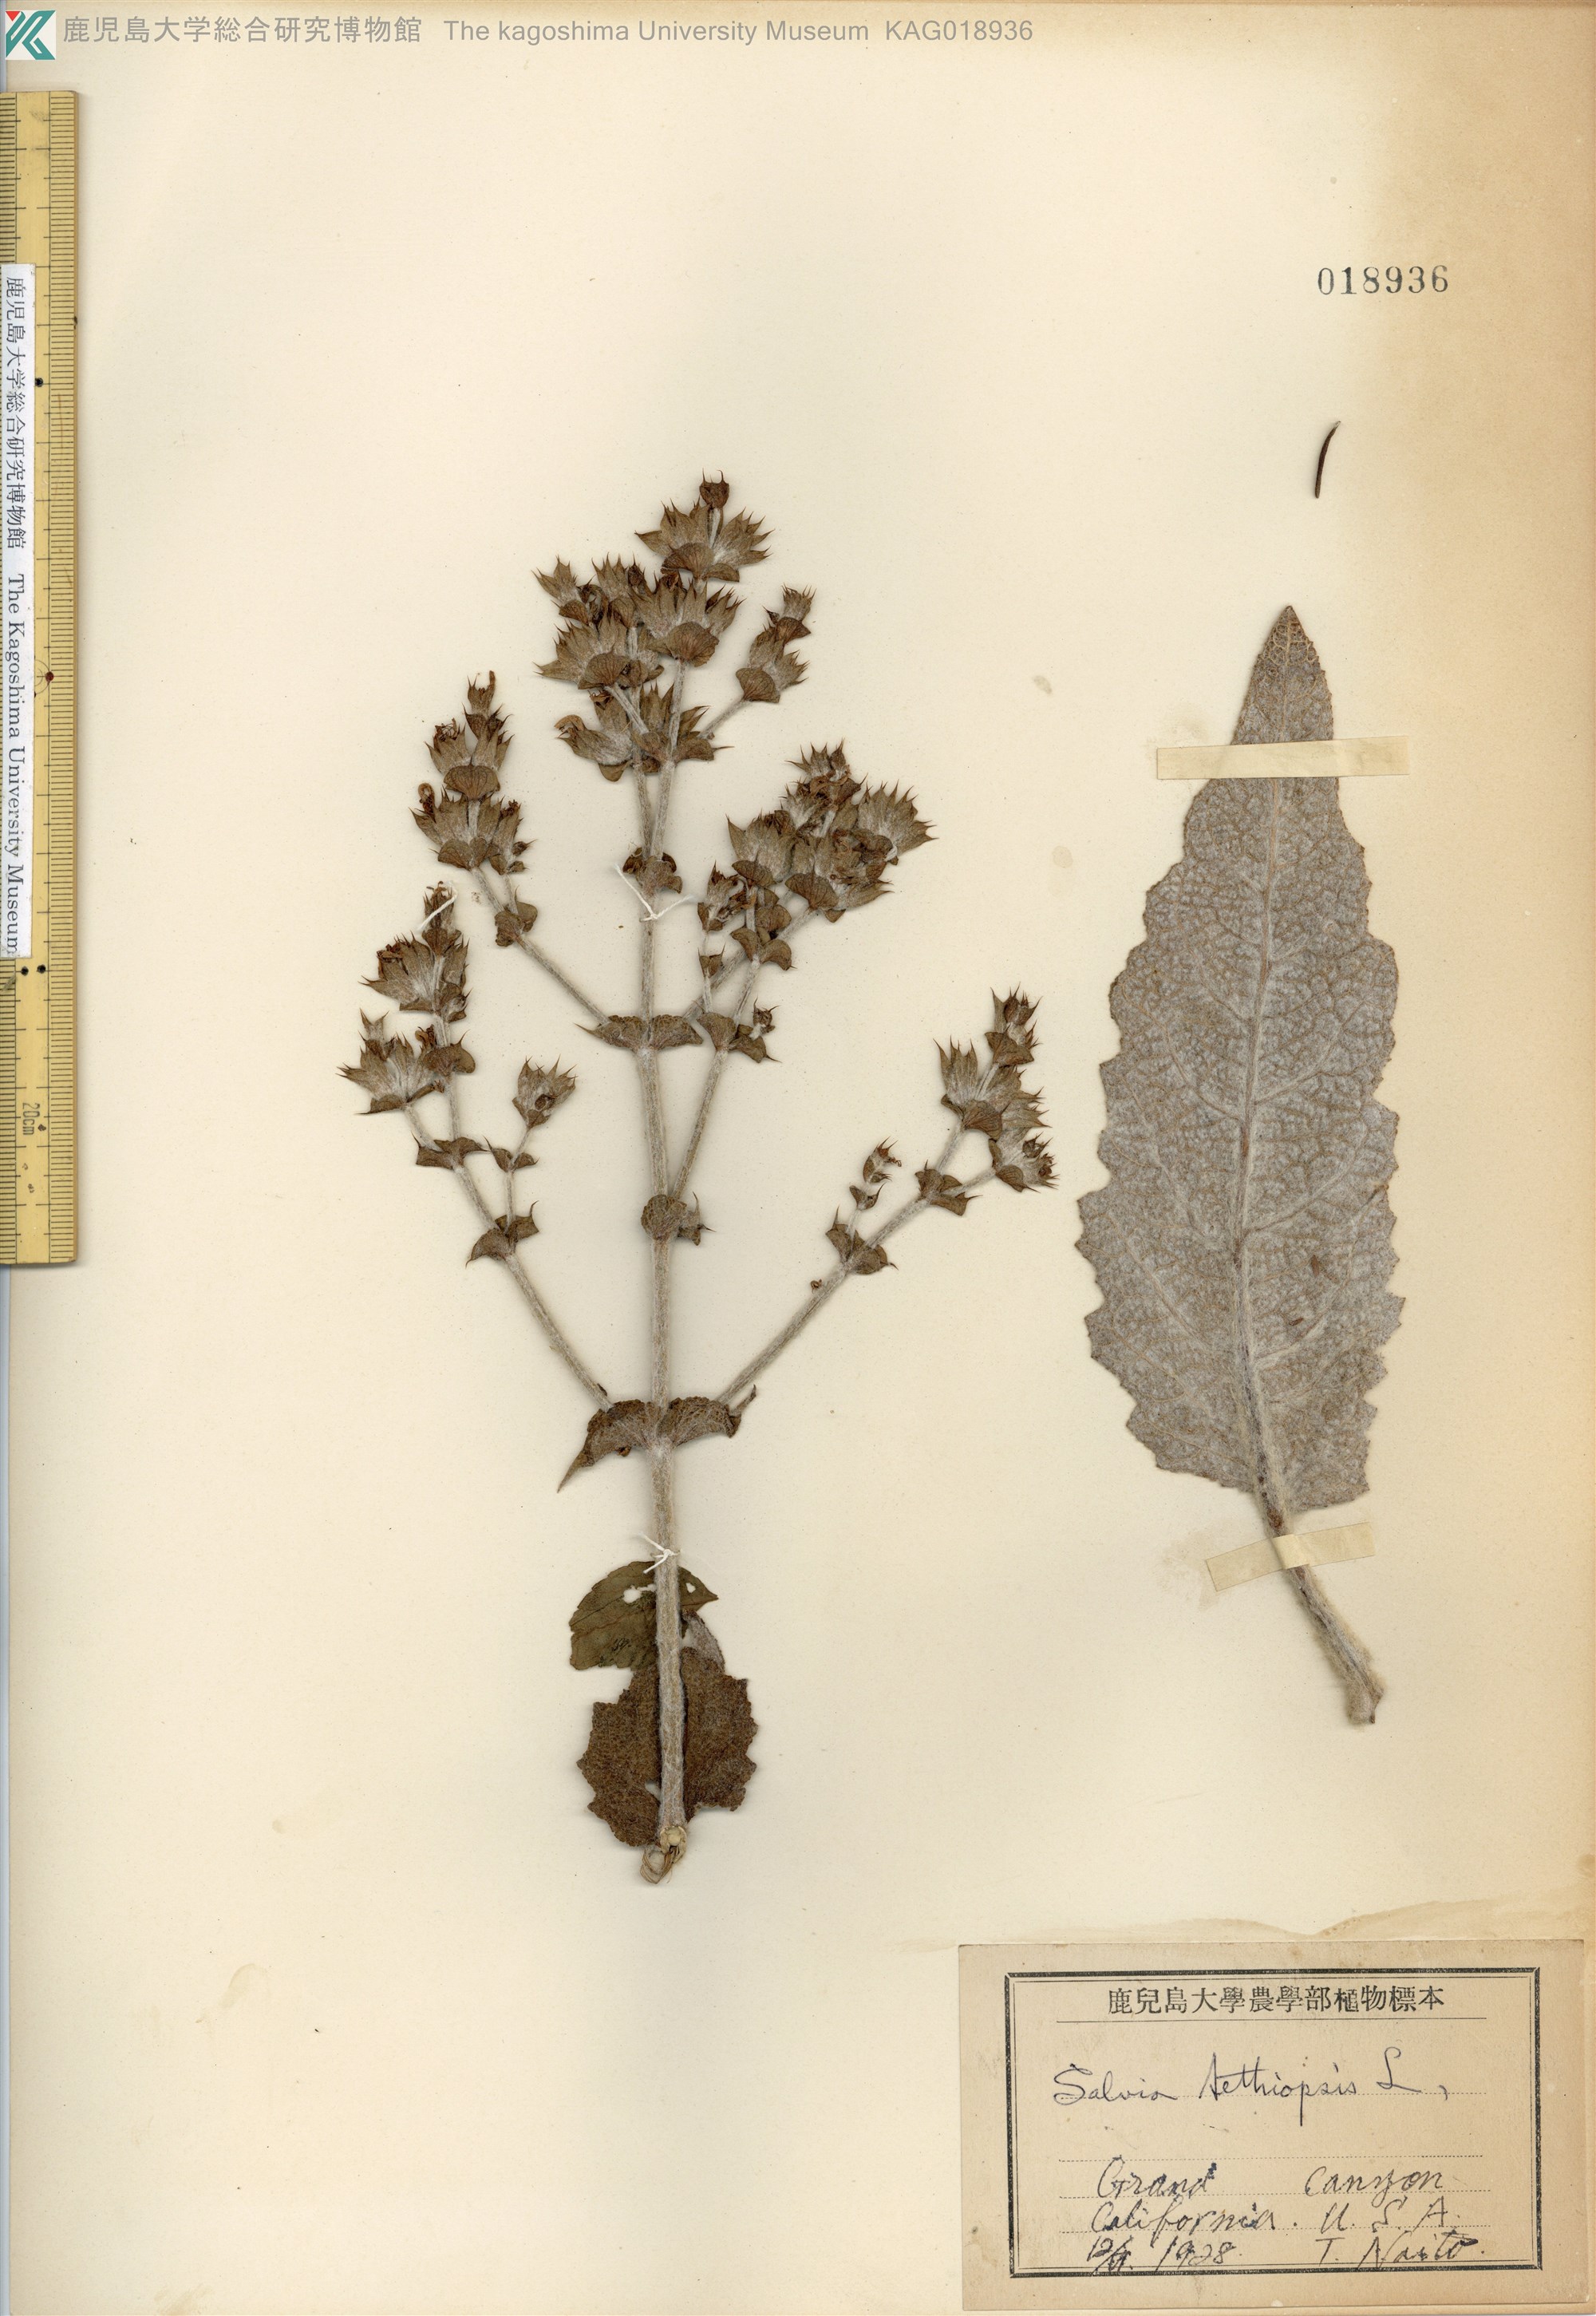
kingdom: Plantae
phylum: Tracheophyta
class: Magnoliopsida
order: Lamiales
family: Lamiaceae
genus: Salvia
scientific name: Salvia aethiopis
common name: Mediterranean sage
